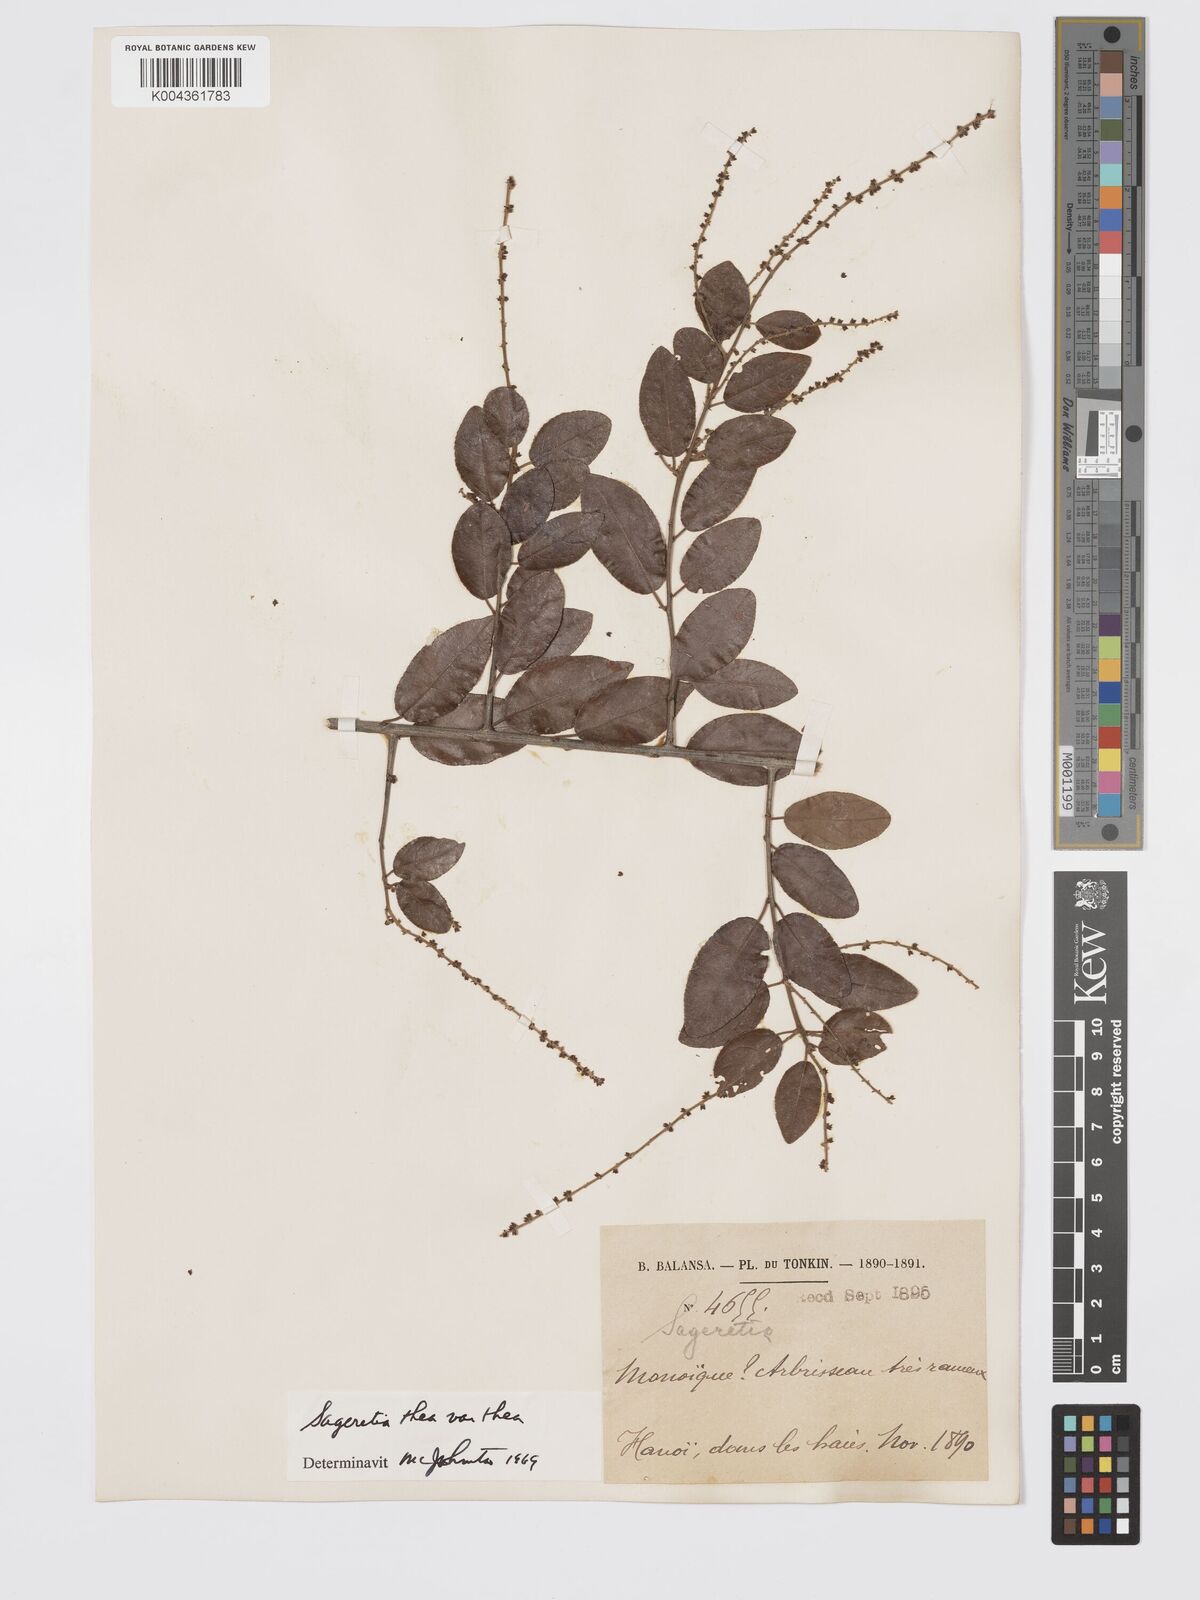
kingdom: Plantae
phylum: Tracheophyta
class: Magnoliopsida
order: Rosales
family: Rhamnaceae
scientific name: Rhamnaceae
